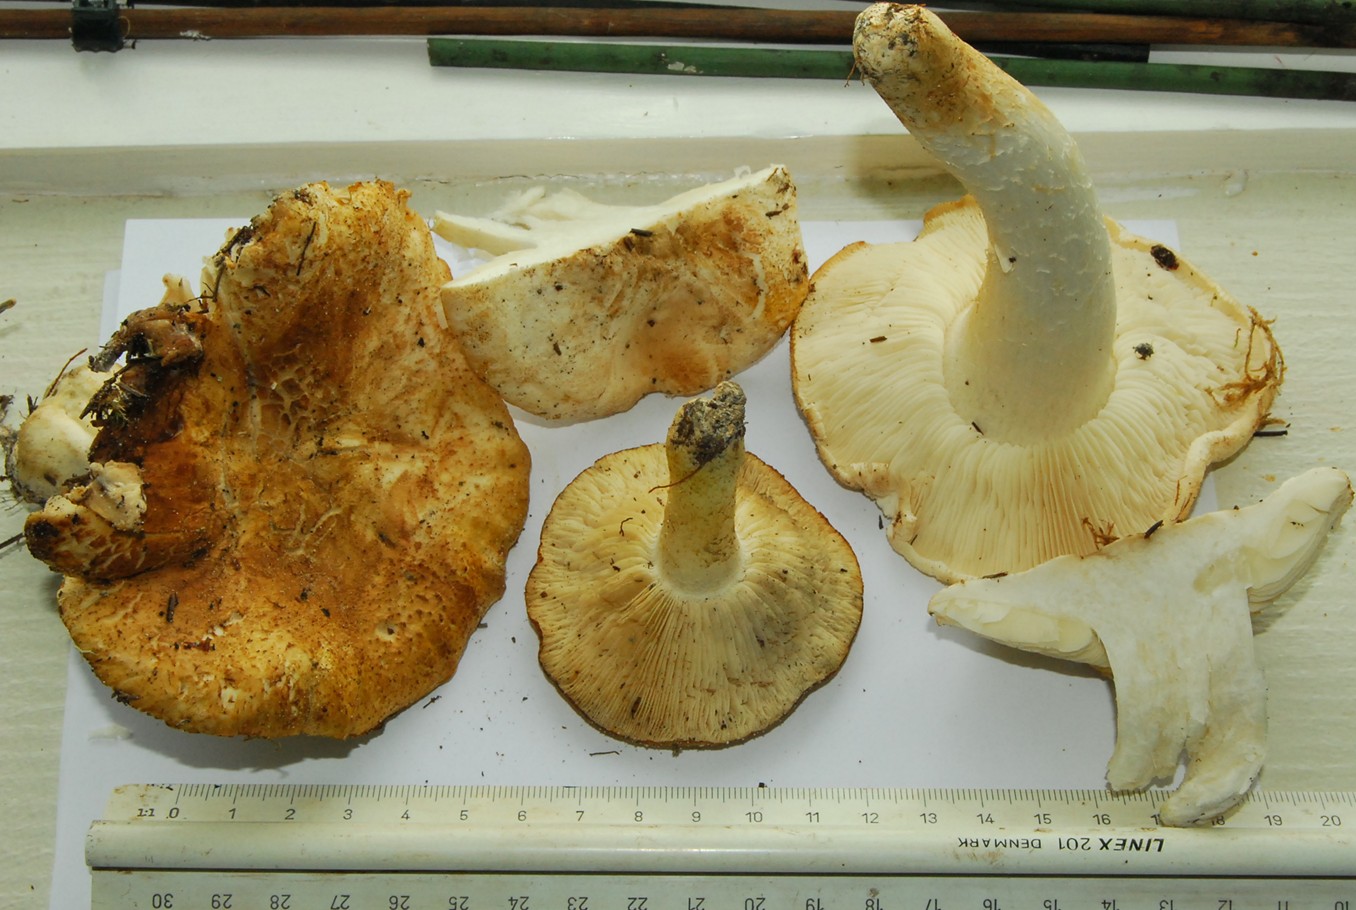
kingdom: Fungi
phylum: Basidiomycota
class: Agaricomycetes
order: Agaricales
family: Tricholomataceae
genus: Tricholoma
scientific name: Tricholoma apium
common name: suppe-ridderhat
